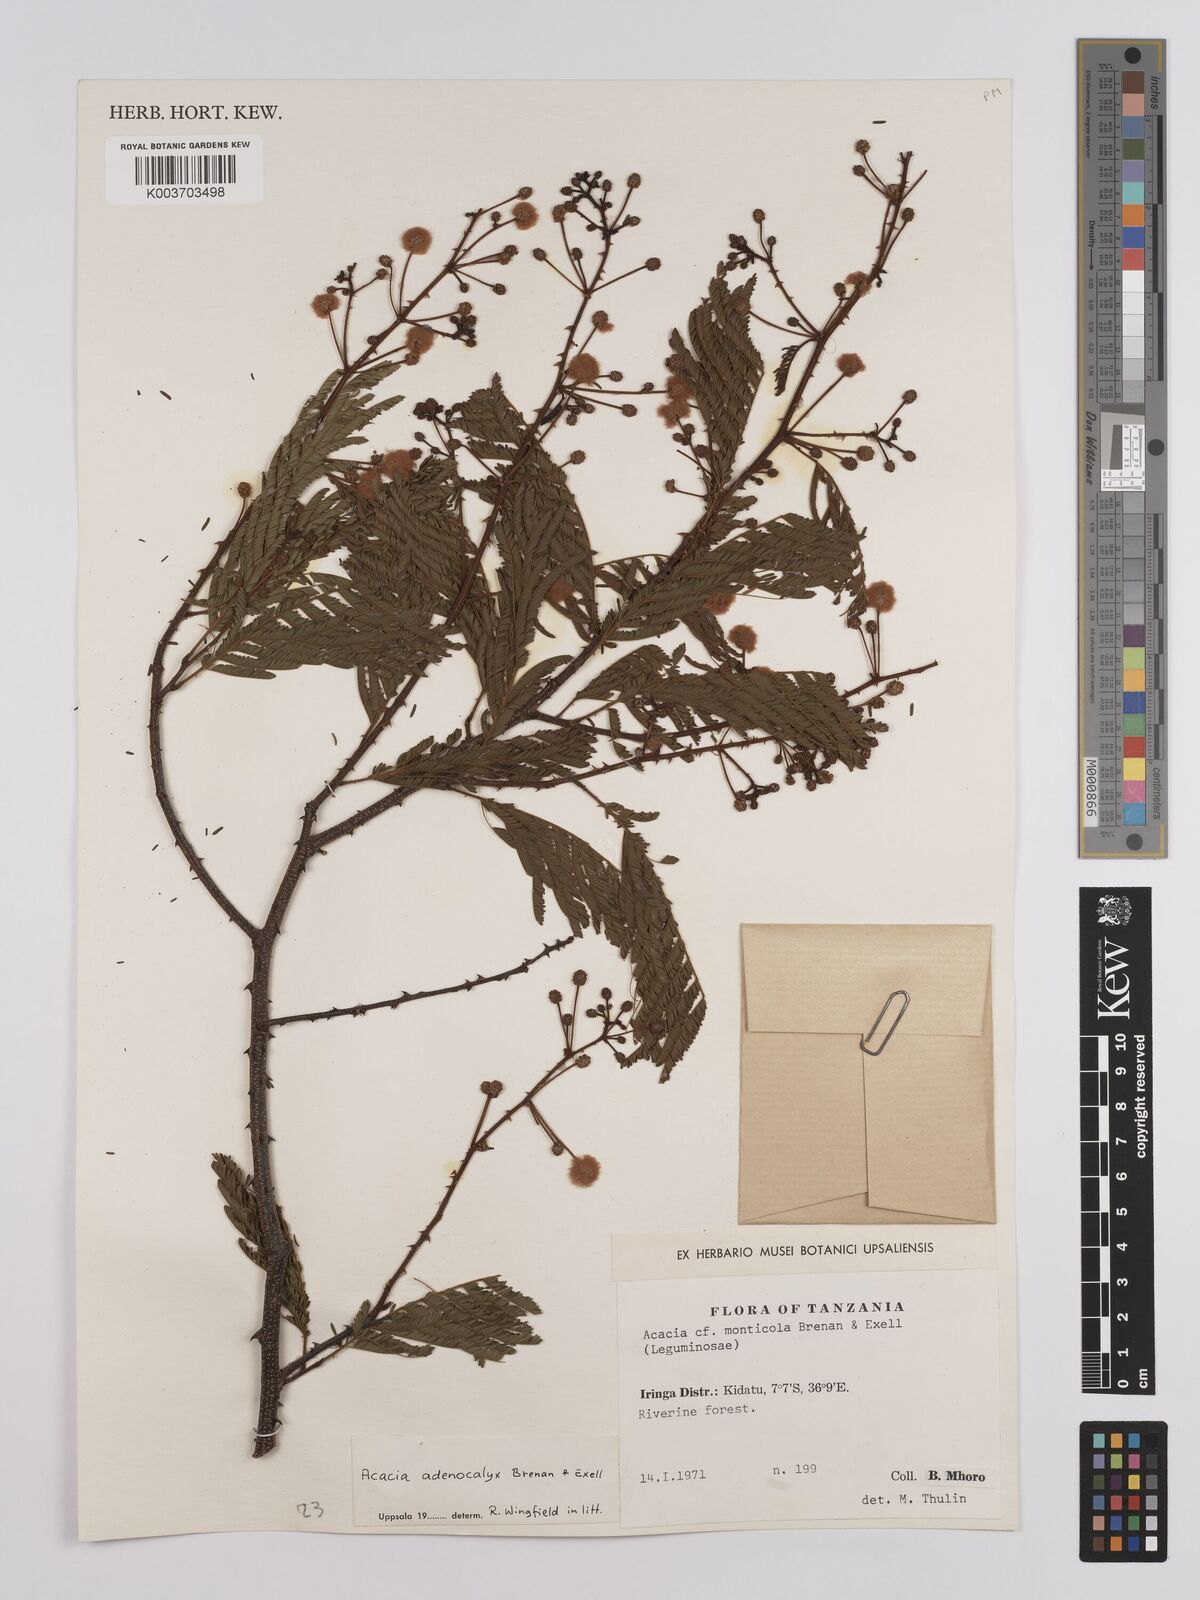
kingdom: Plantae
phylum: Tracheophyta
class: Magnoliopsida
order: Fabales
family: Fabaceae
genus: Senegalia
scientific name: Senegalia adenocalyx
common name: Pfurura
